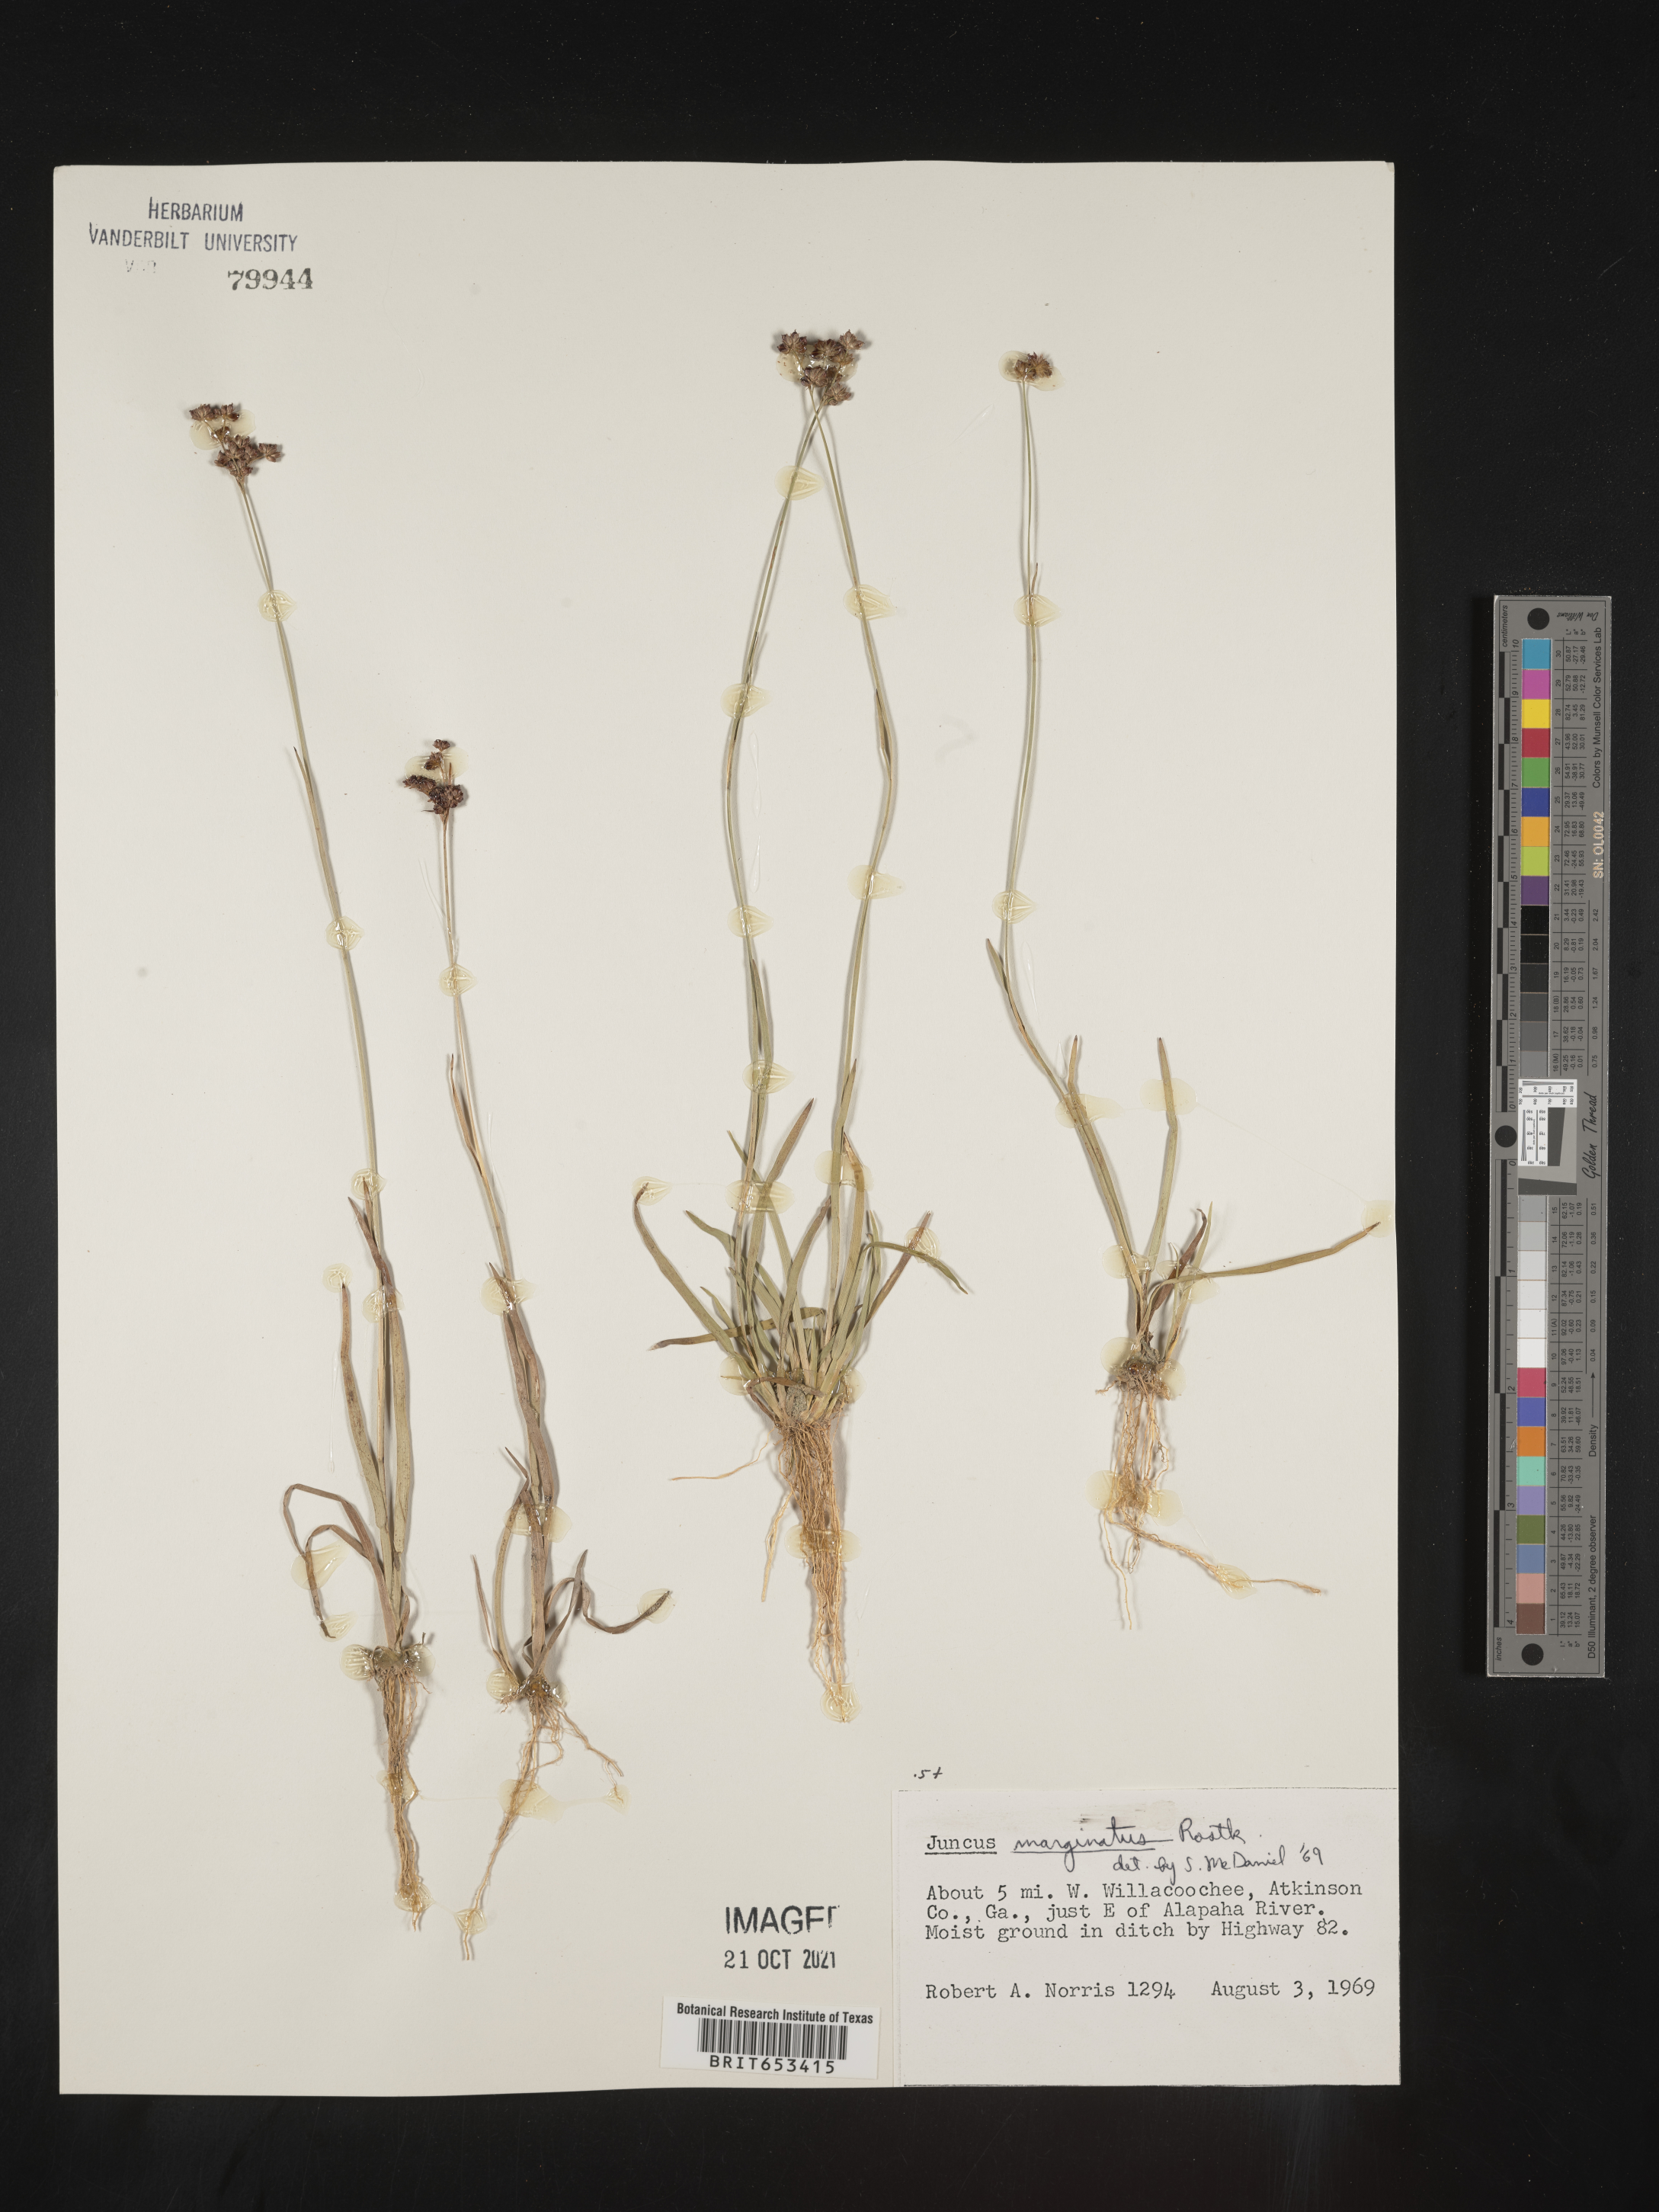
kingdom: Plantae
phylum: Tracheophyta
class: Liliopsida
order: Poales
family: Juncaceae
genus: Juncus
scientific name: Juncus marginatus
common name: Grass-leaf rush
